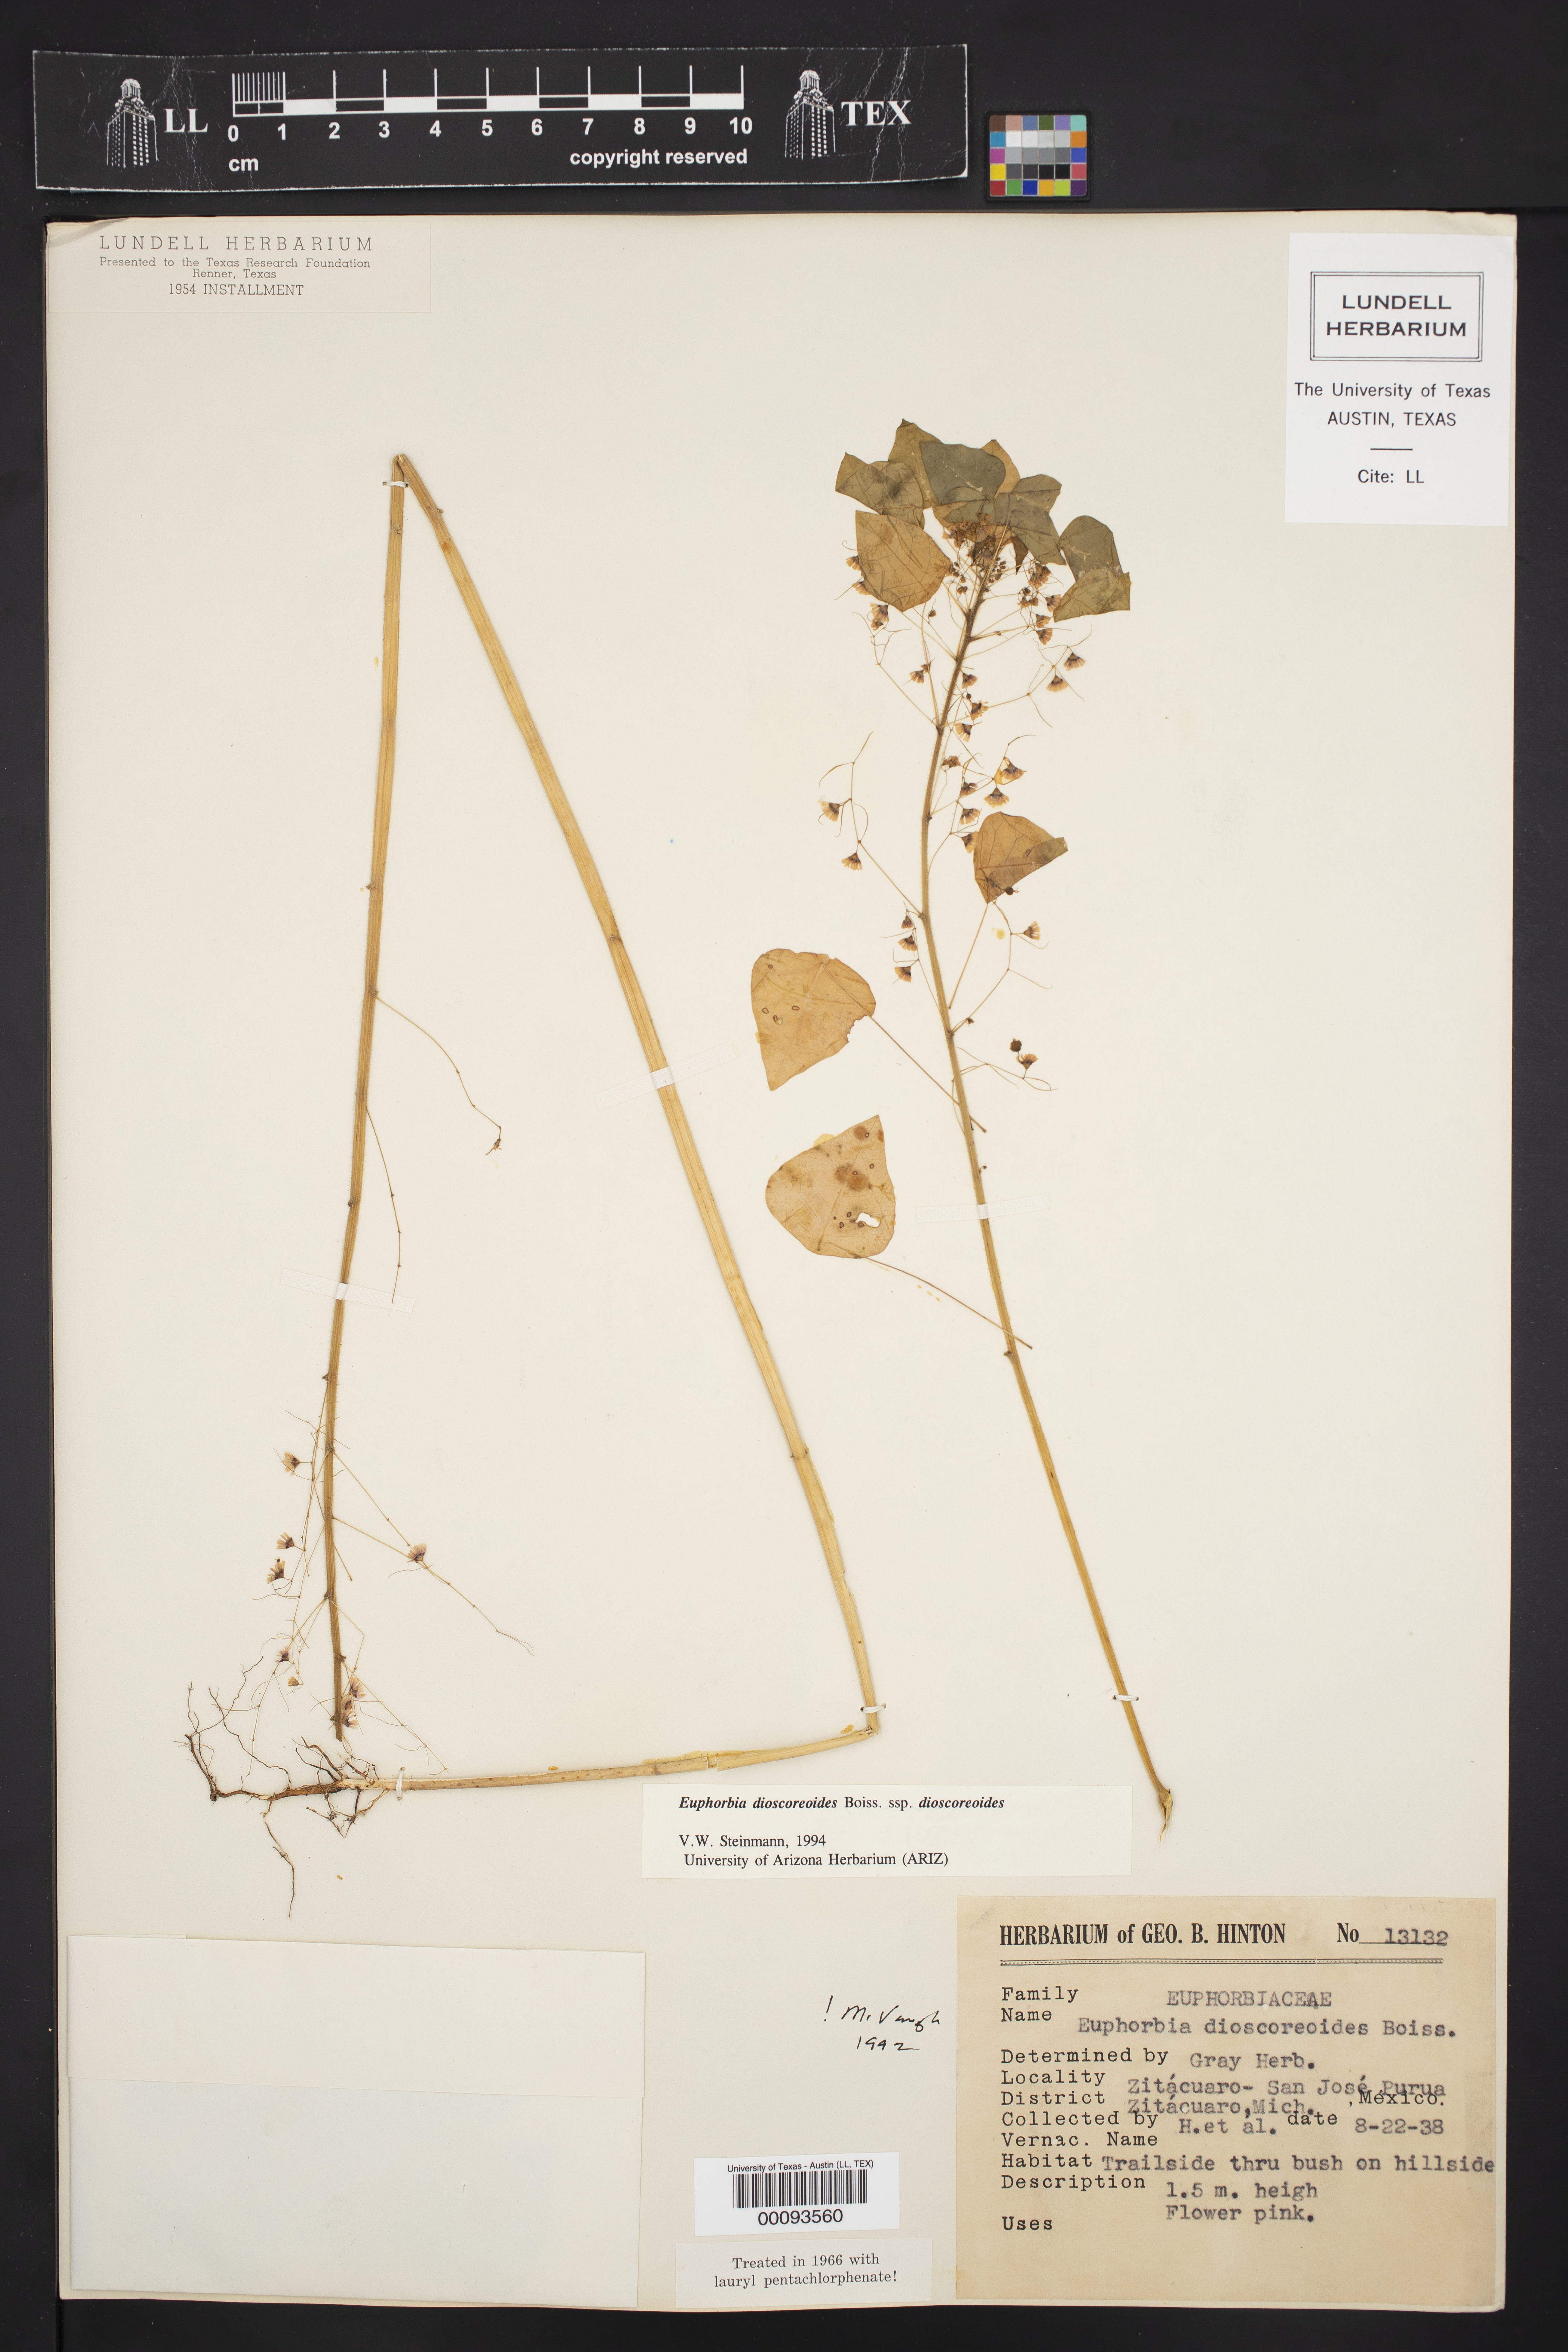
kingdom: Plantae
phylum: Tracheophyta
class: Magnoliopsida
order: Malpighiales
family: Euphorbiaceae
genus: Euphorbia
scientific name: Euphorbia dioscoreoides
